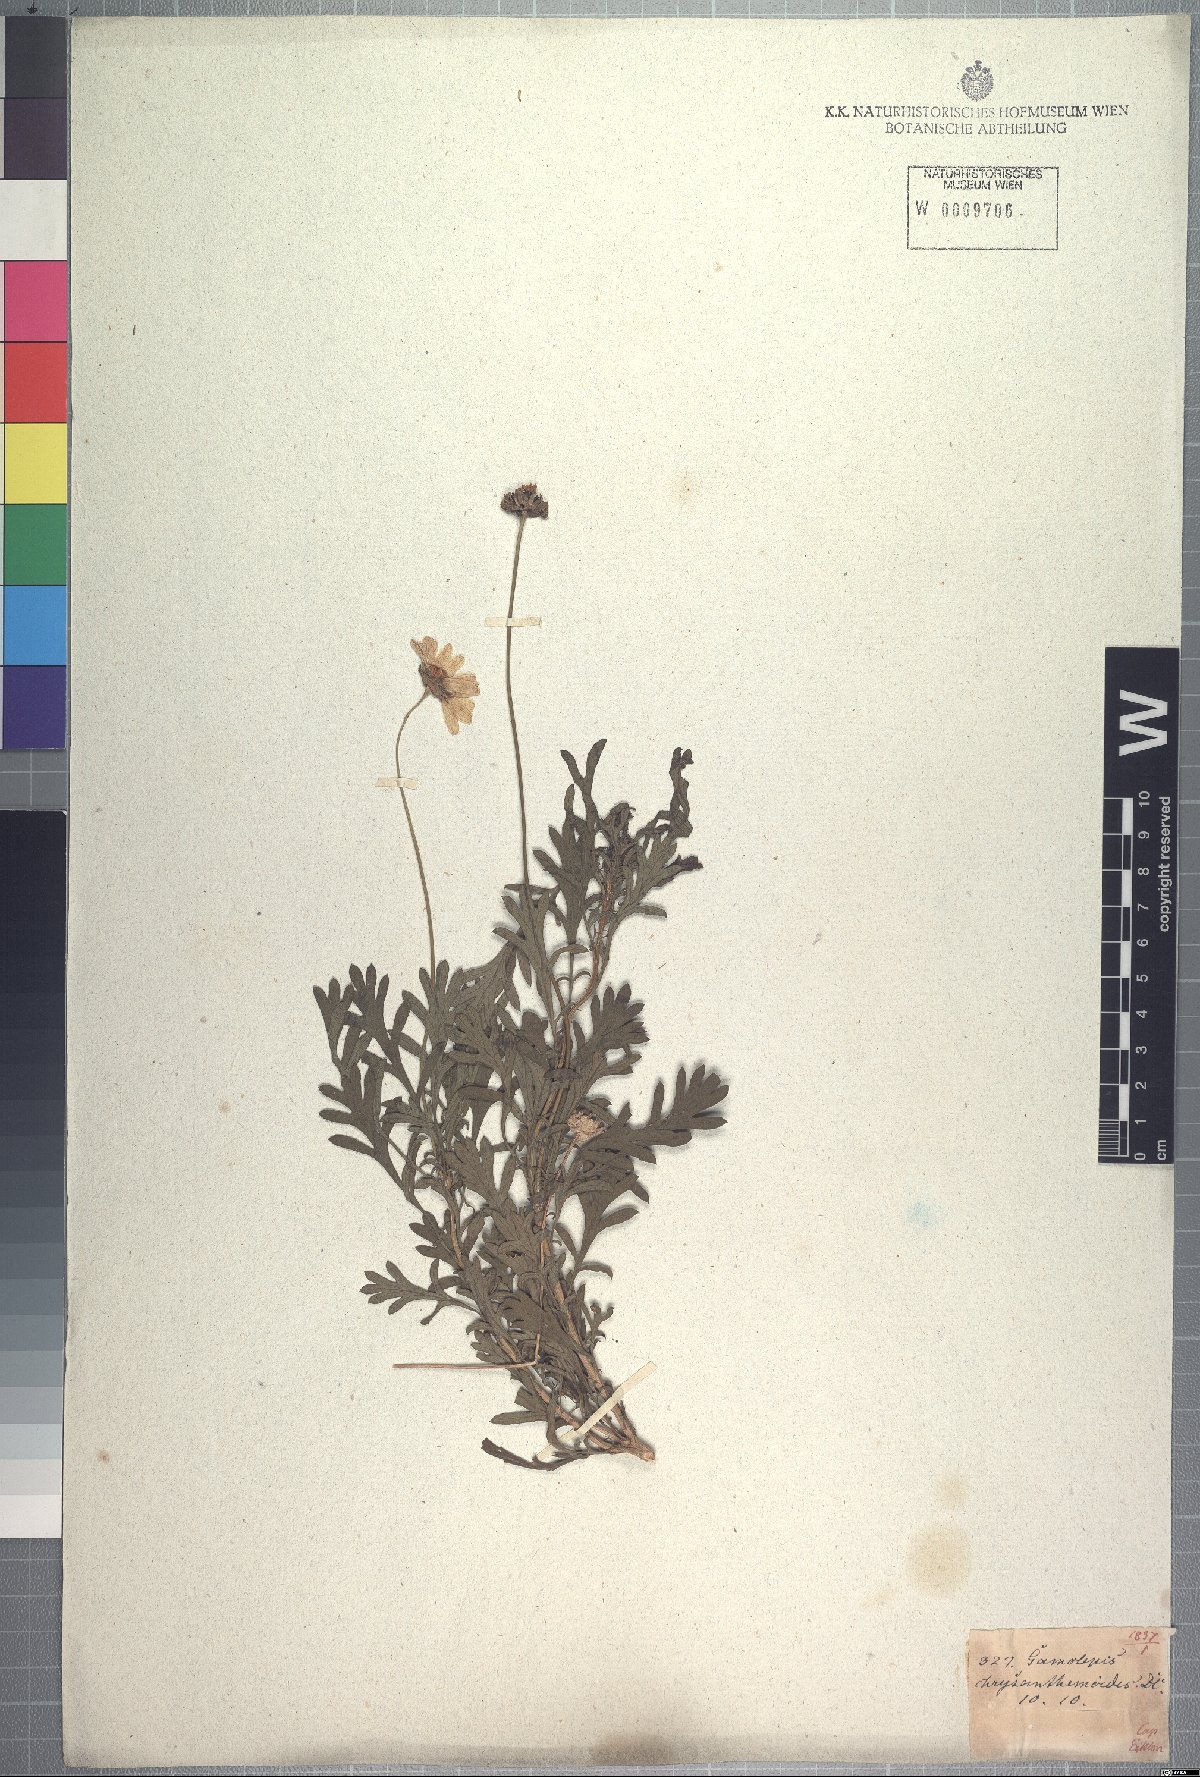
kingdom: Plantae
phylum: Tracheophyta
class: Magnoliopsida
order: Asterales
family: Asteraceae
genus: Euryops
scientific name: Euryops chrysanthemoides
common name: Bull's eye
